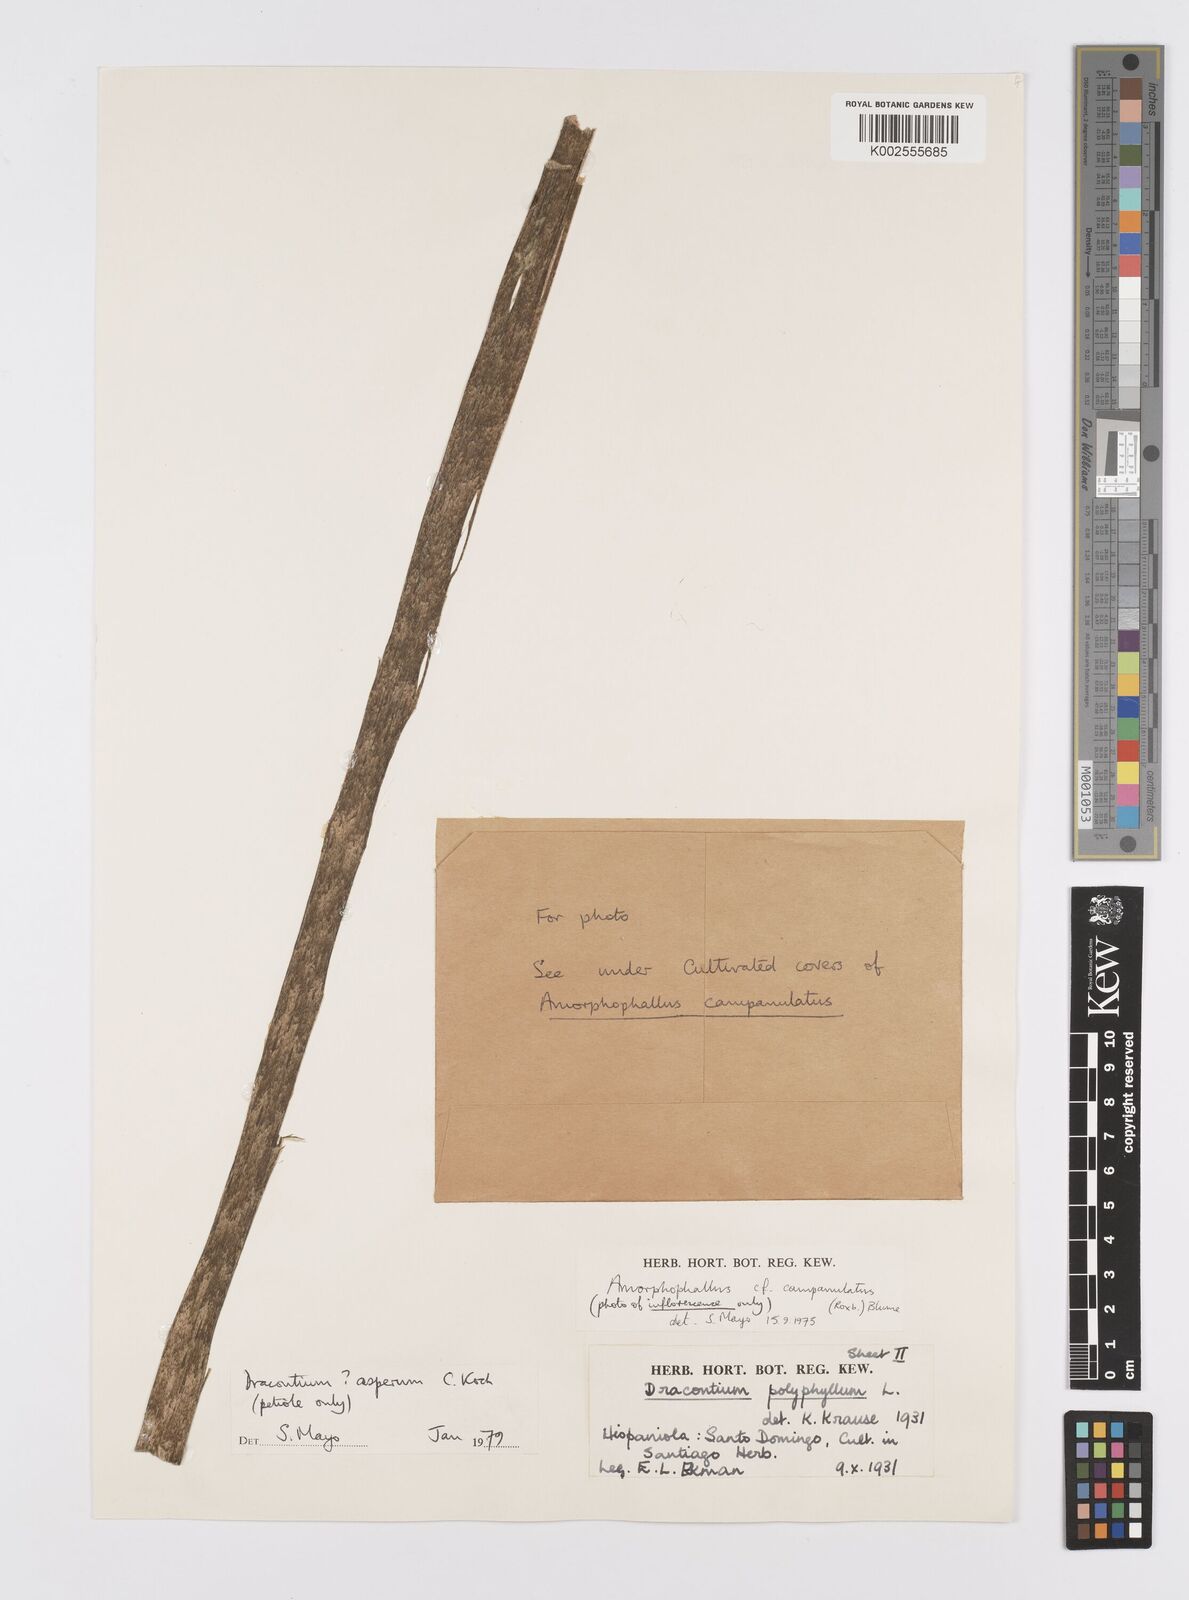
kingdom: Plantae
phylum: Tracheophyta
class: Liliopsida
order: Alismatales
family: Araceae
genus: Dracontium
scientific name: Dracontium asperum
